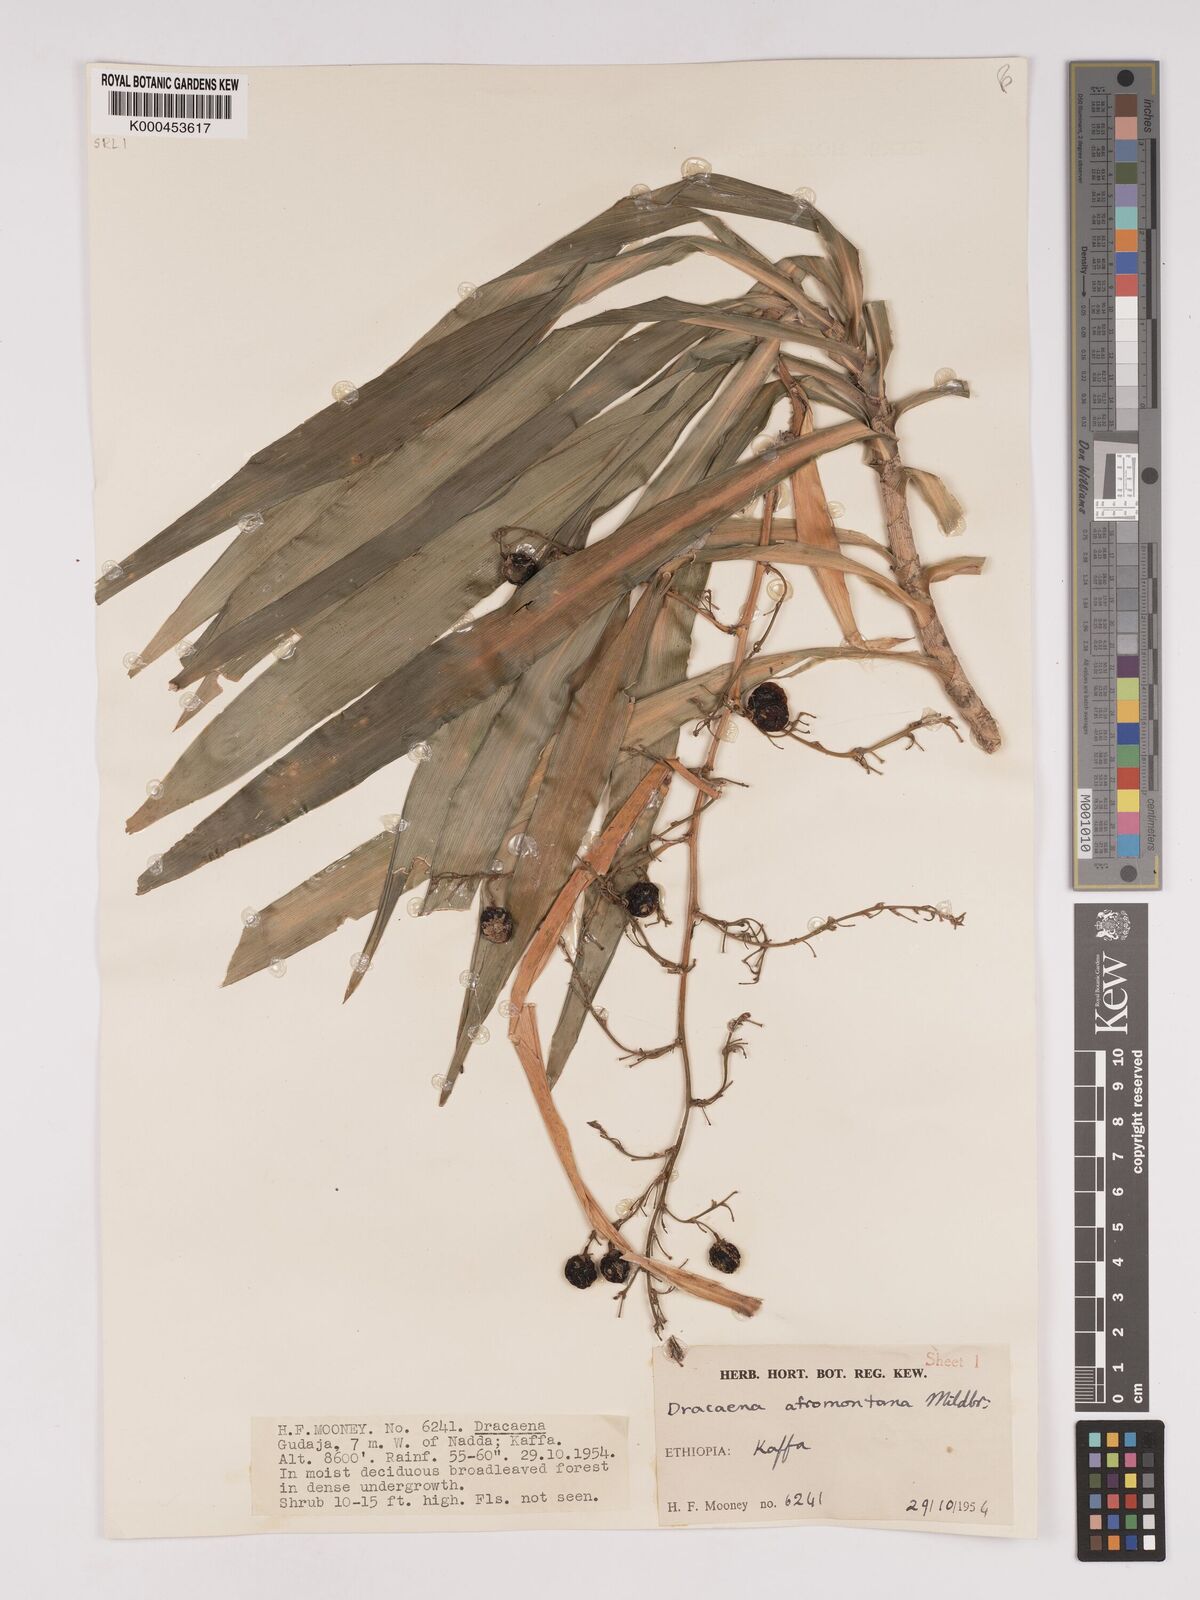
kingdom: Plantae
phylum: Tracheophyta
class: Liliopsida
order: Asparagales
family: Asparagaceae
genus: Dracaena
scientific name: Dracaena afromontana
